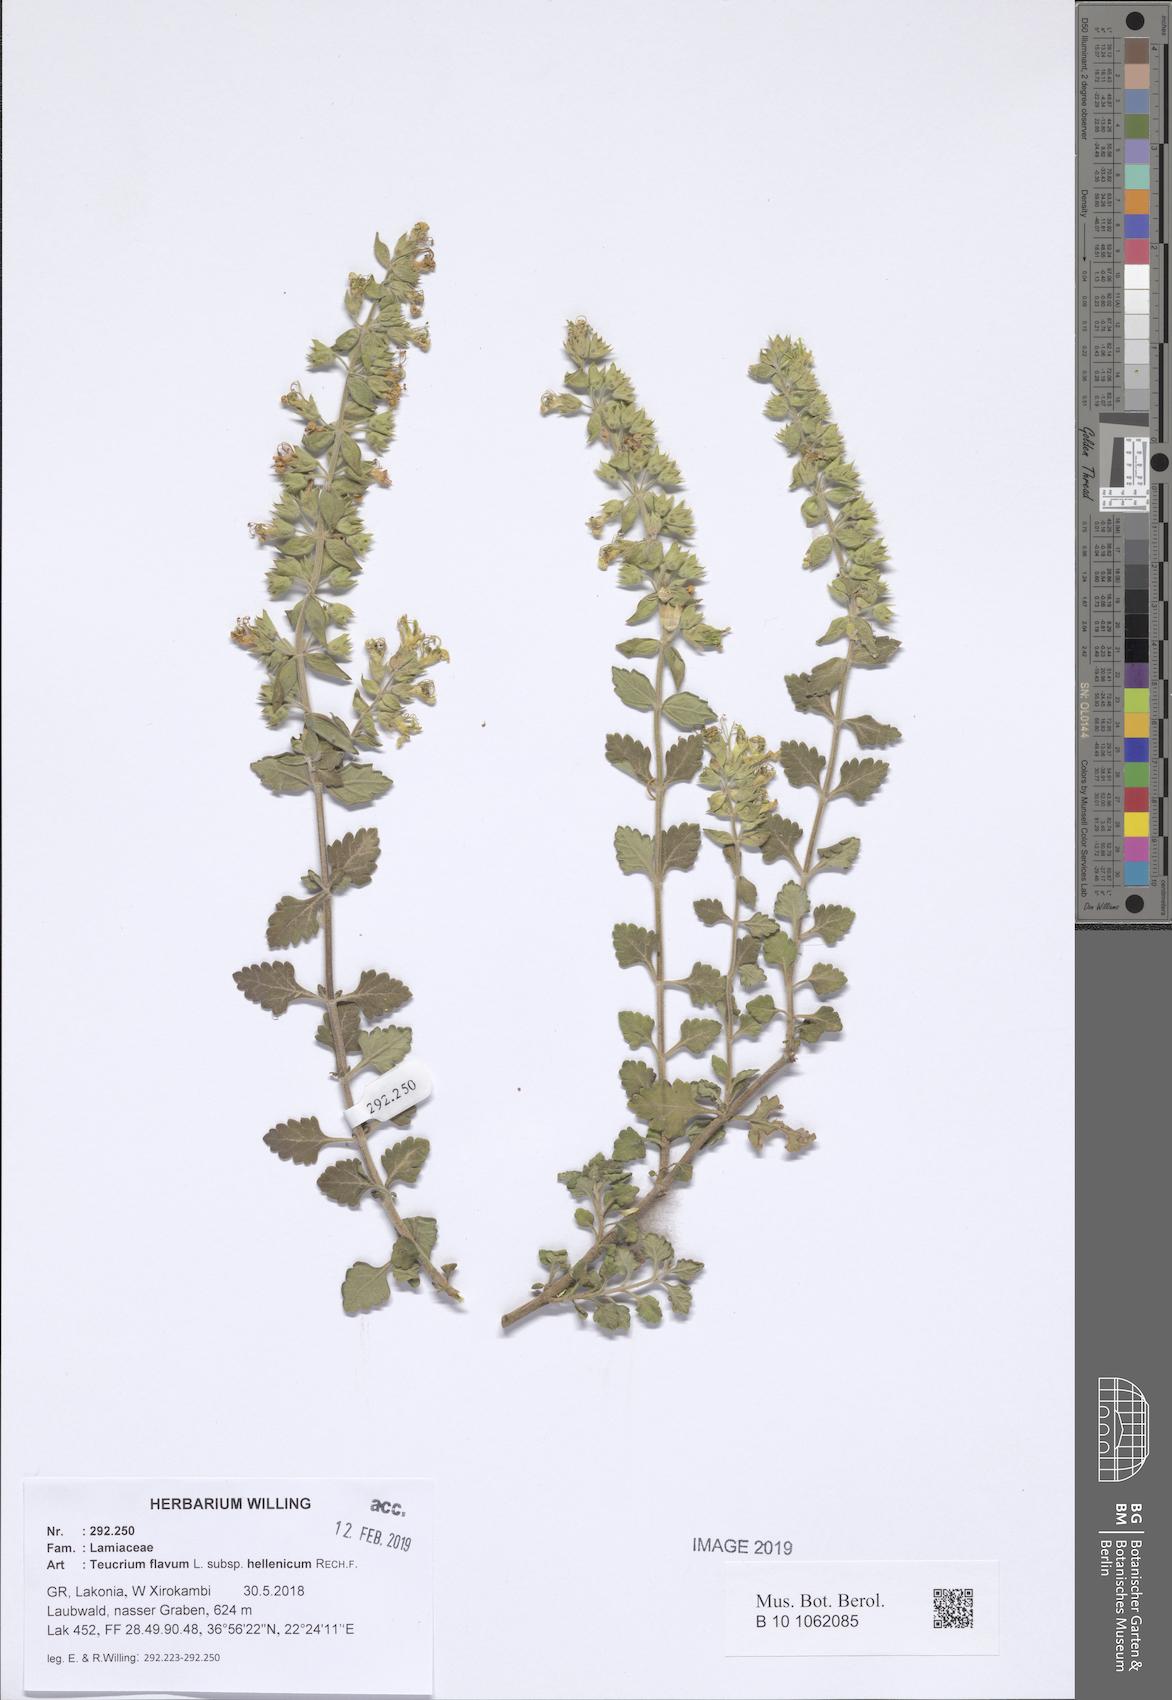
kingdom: Plantae
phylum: Tracheophyta
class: Magnoliopsida
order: Lamiales
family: Lamiaceae
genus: Teucrium
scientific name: Teucrium flavum
